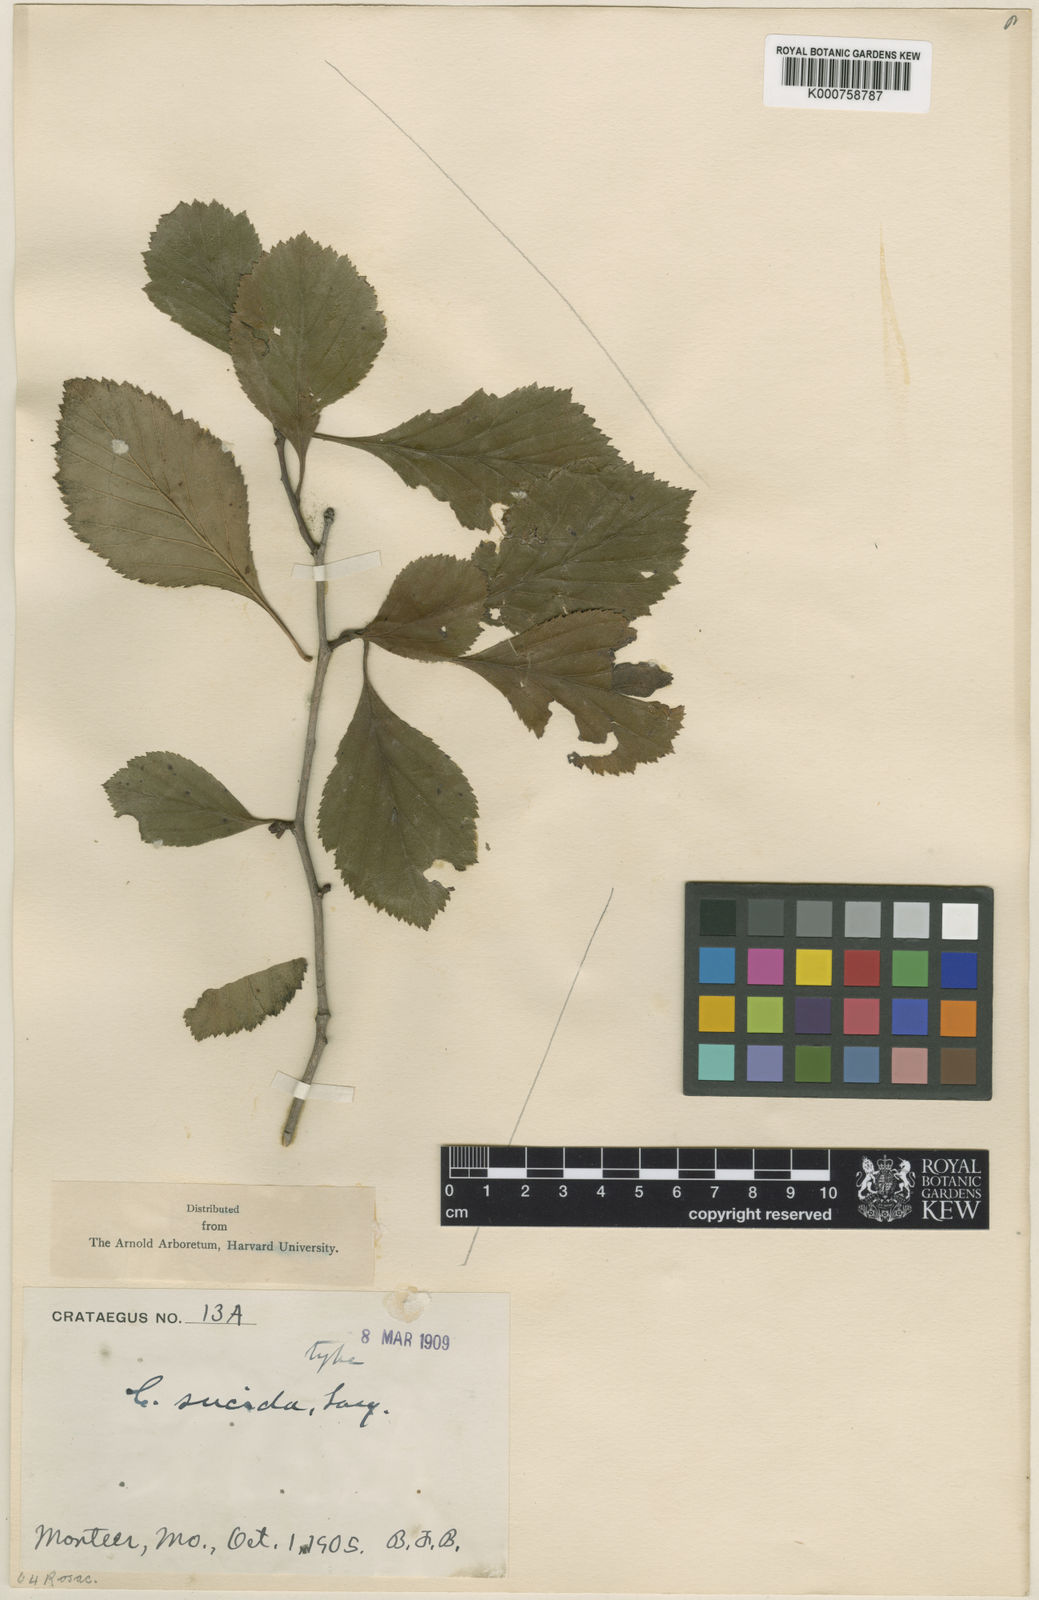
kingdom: Plantae
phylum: Tracheophyta
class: Magnoliopsida
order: Rosales
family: Rosaceae
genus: Crataegus
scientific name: Crataegus sucida
